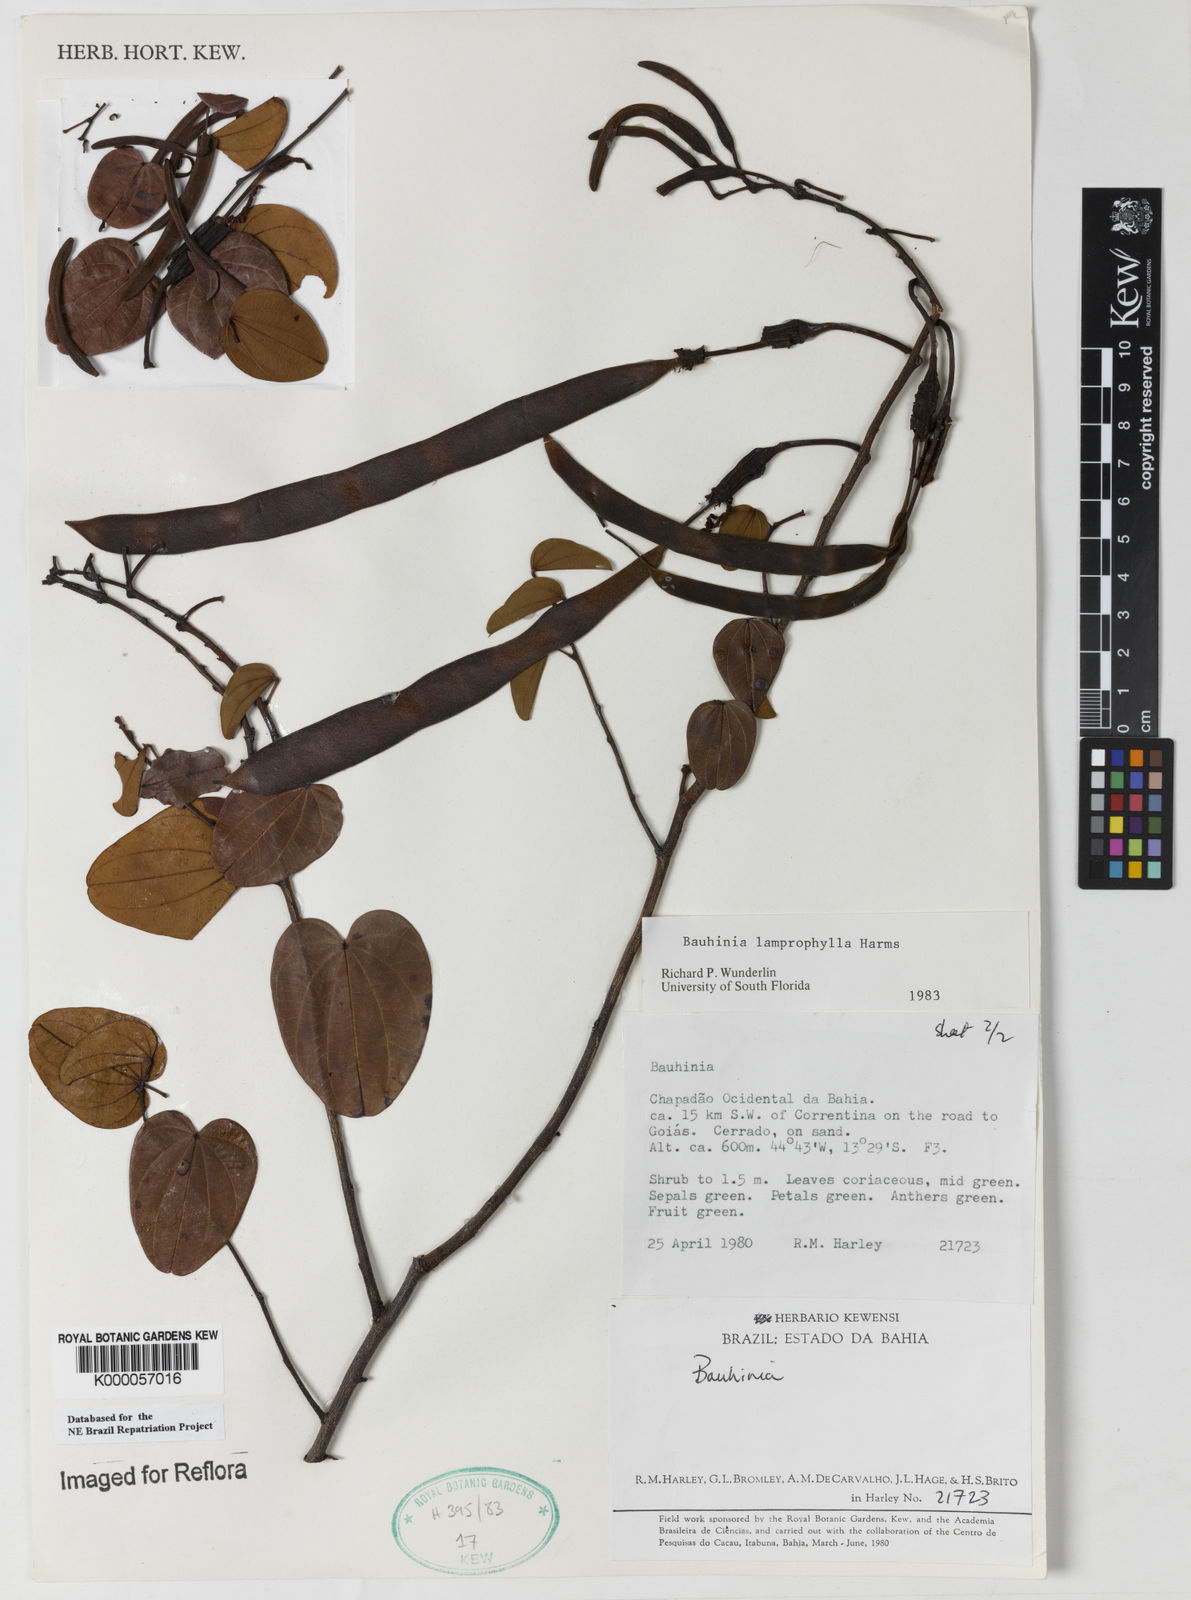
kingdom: Plantae
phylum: Tracheophyta
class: Magnoliopsida
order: Fabales
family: Fabaceae
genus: Bauhinia
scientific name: Bauhinia acuruana
